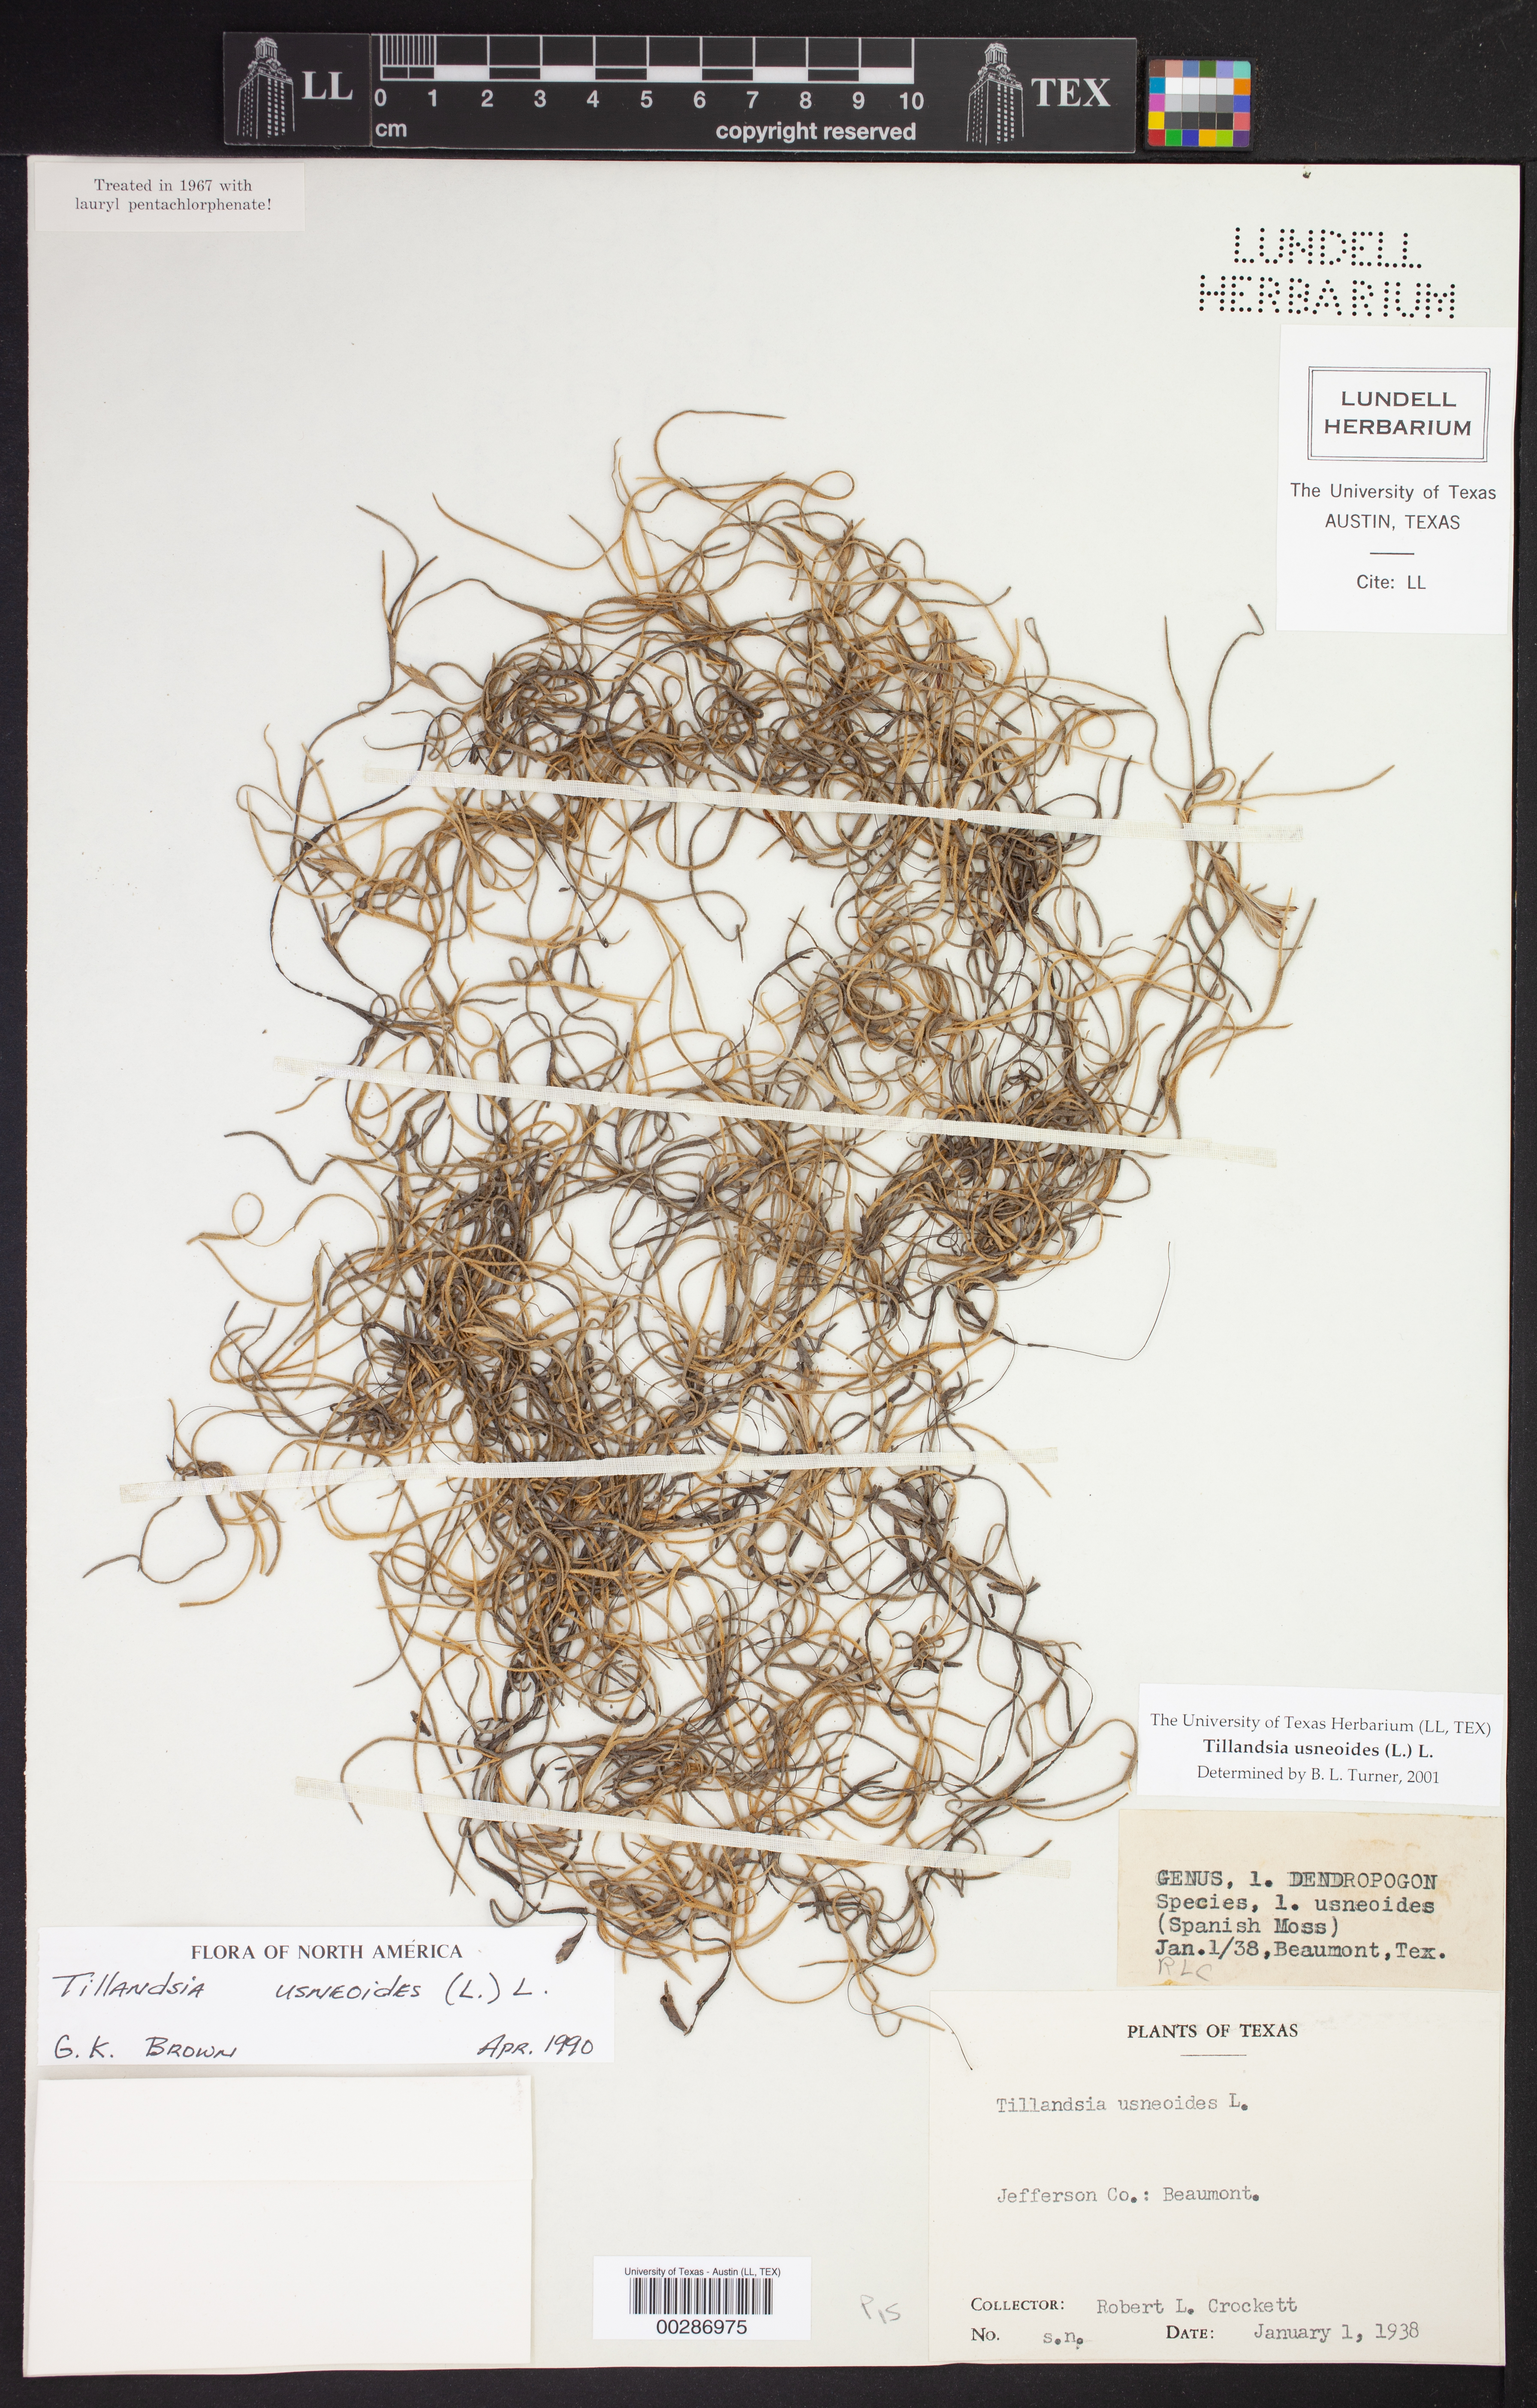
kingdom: Plantae
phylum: Tracheophyta
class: Liliopsida
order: Poales
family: Bromeliaceae
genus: Tillandsia
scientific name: Tillandsia usneoides
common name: Spanish moss
